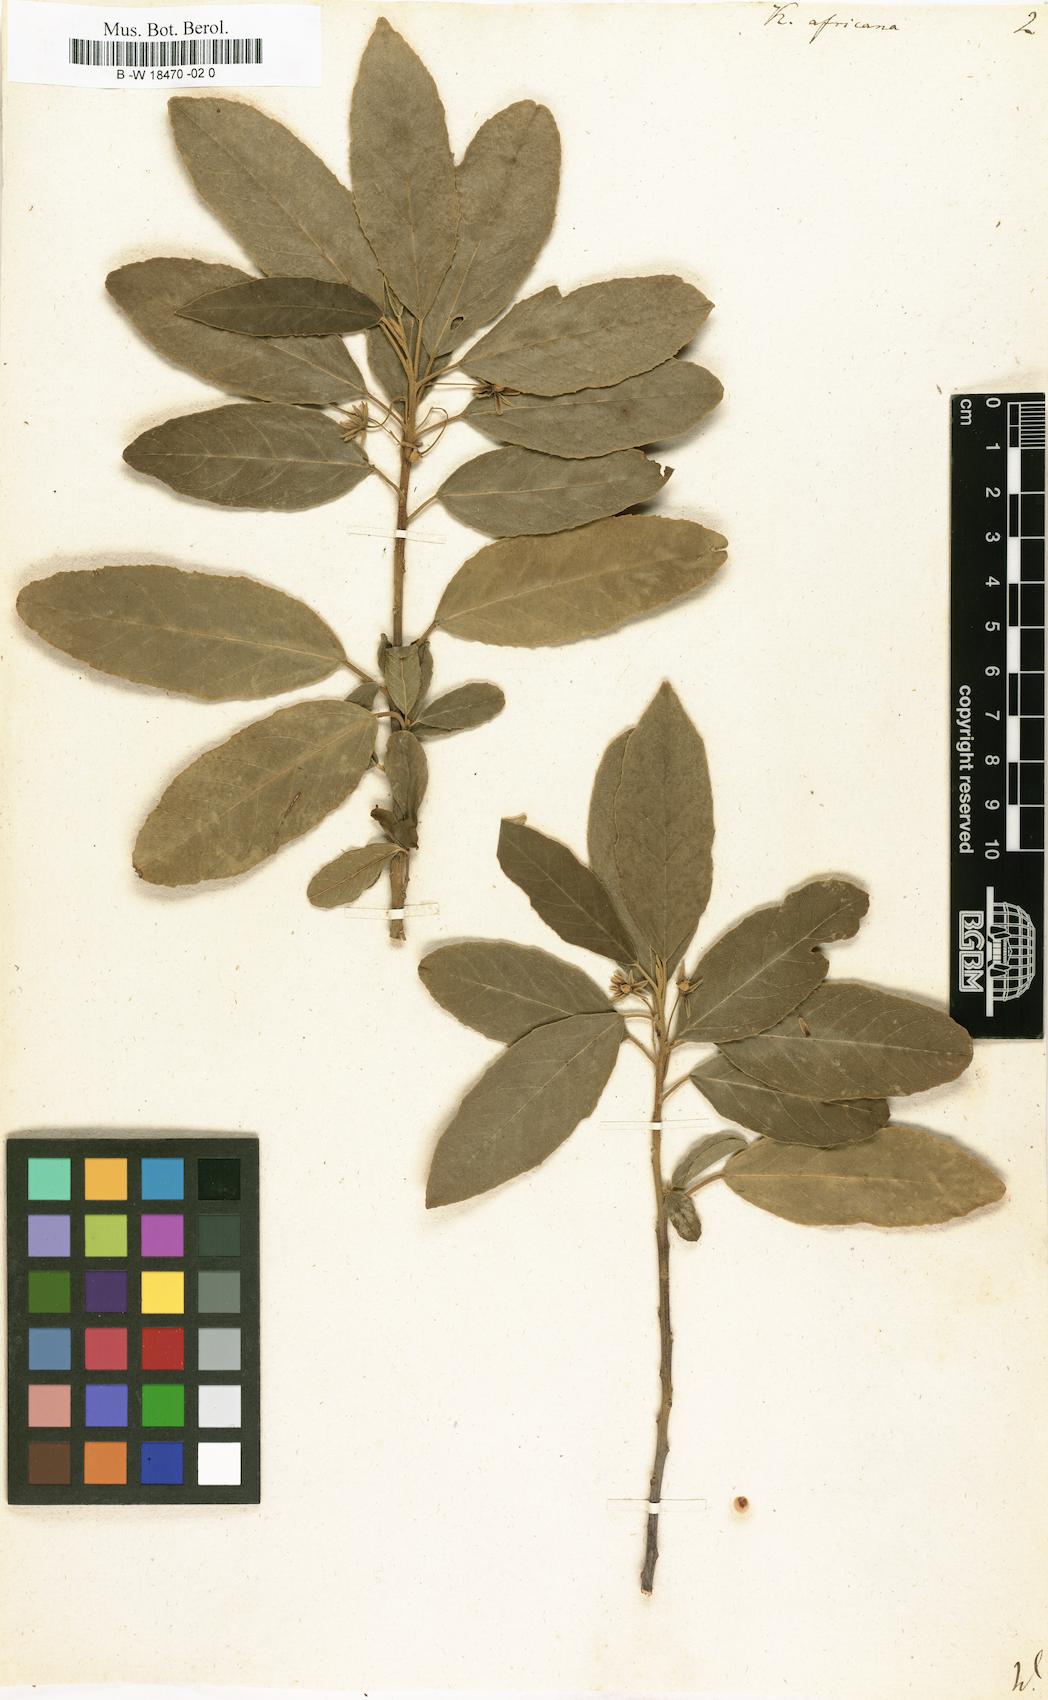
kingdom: Plantae
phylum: Tracheophyta
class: Magnoliopsida
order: Malpighiales
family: Achariaceae
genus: Kiggelaria
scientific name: Kiggelaria africana
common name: Wild peach
